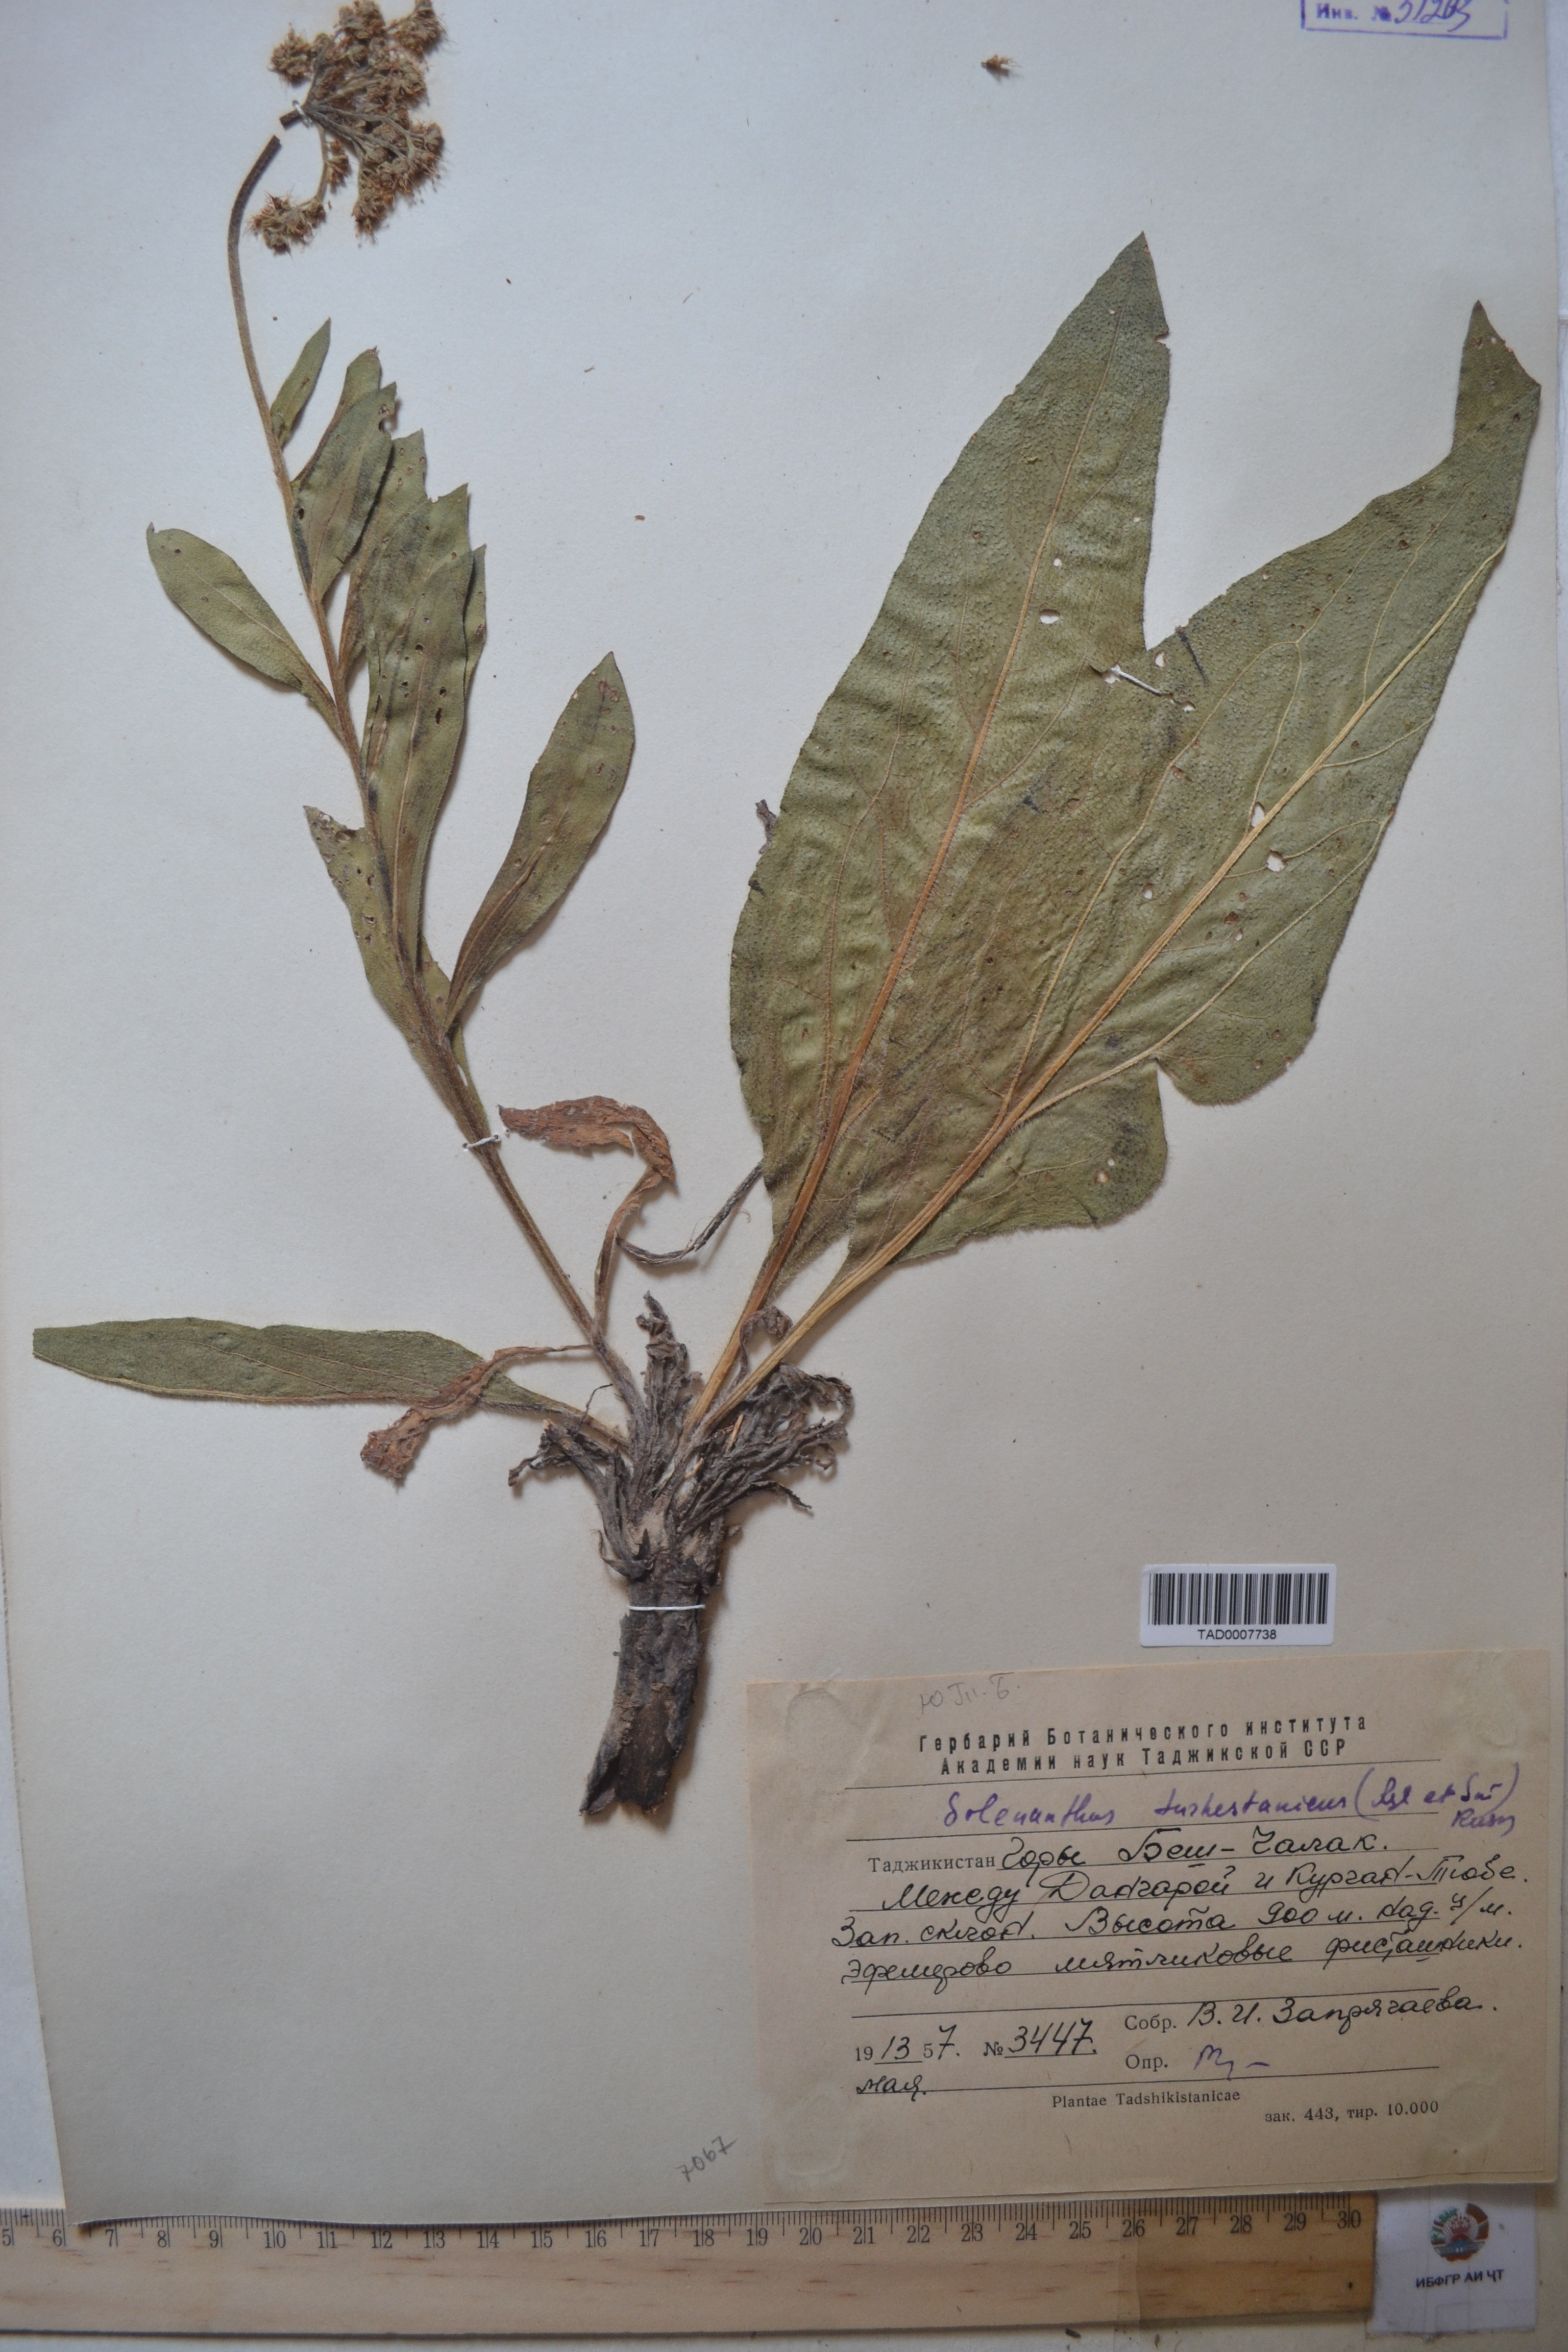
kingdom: Plantae
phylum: Tracheophyta
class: Magnoliopsida
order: Boraginales
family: Boraginaceae
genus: Solenanthus
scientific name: Solenanthus turkestanicus
